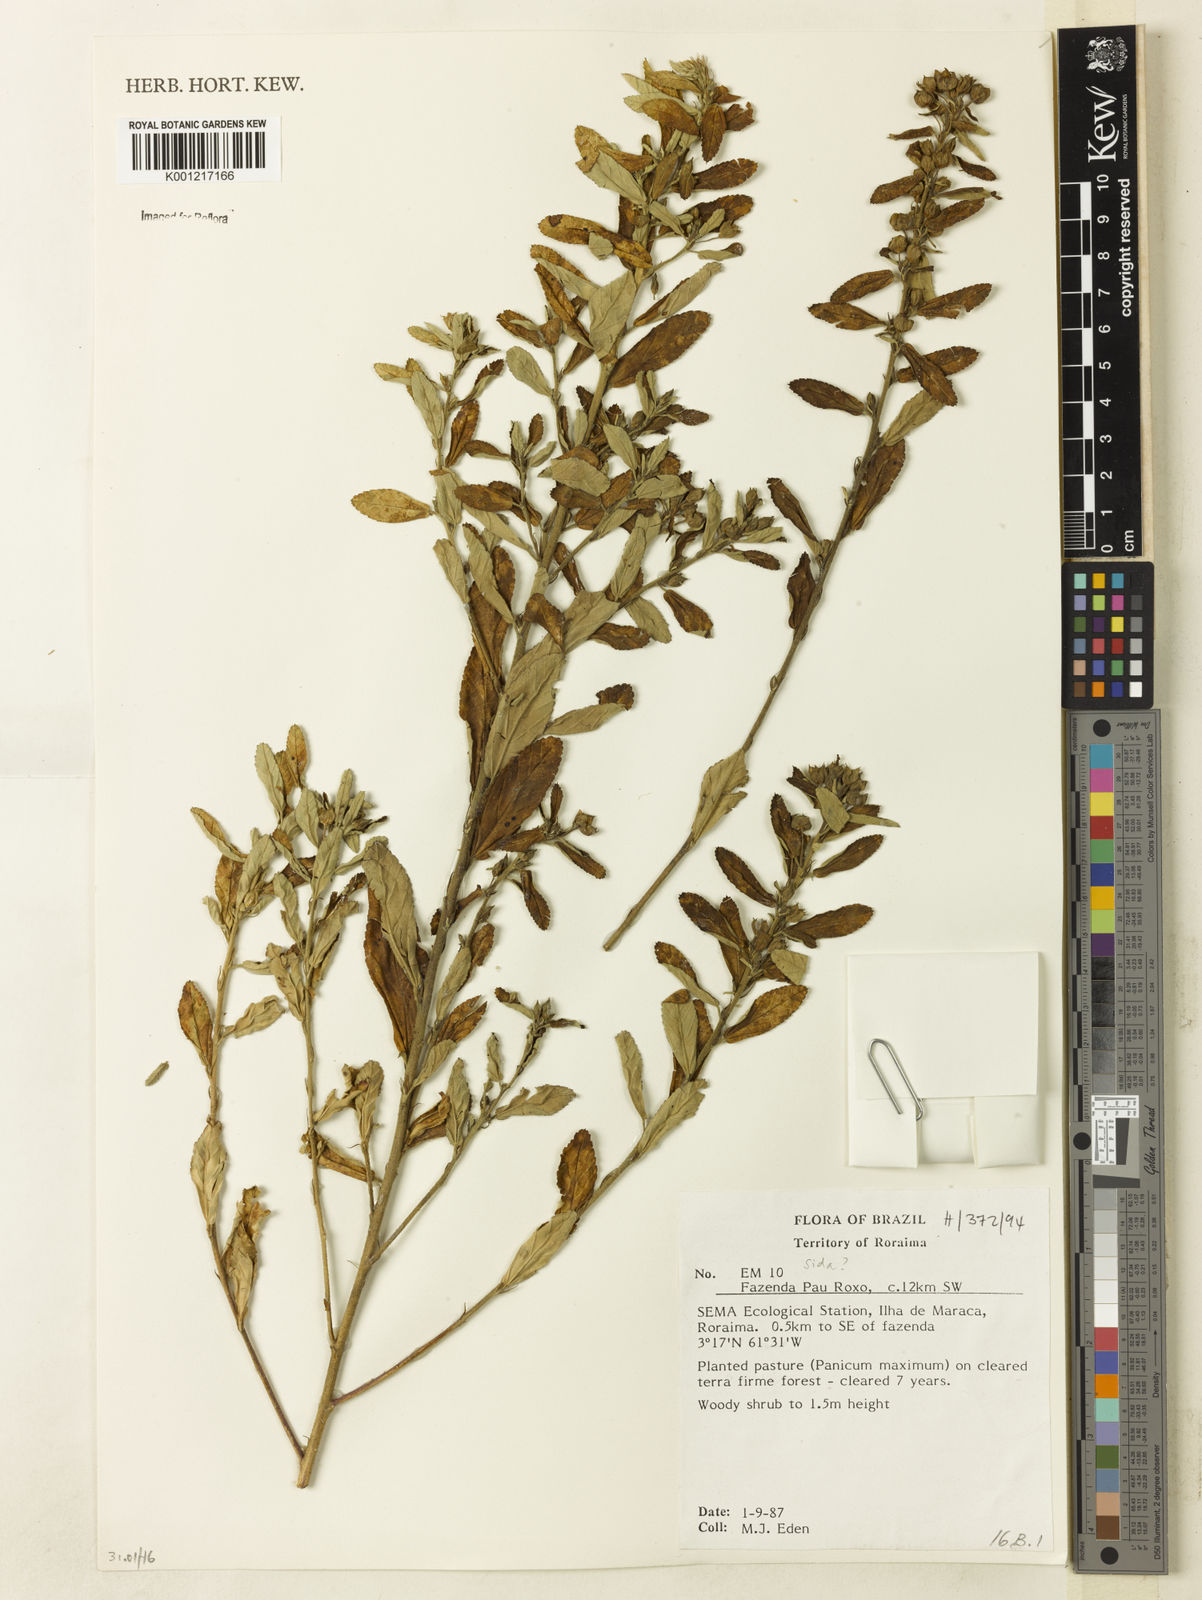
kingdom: Plantae
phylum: Tracheophyta
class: Magnoliopsida
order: Malvales
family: Malvaceae
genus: Sida
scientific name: Sida
